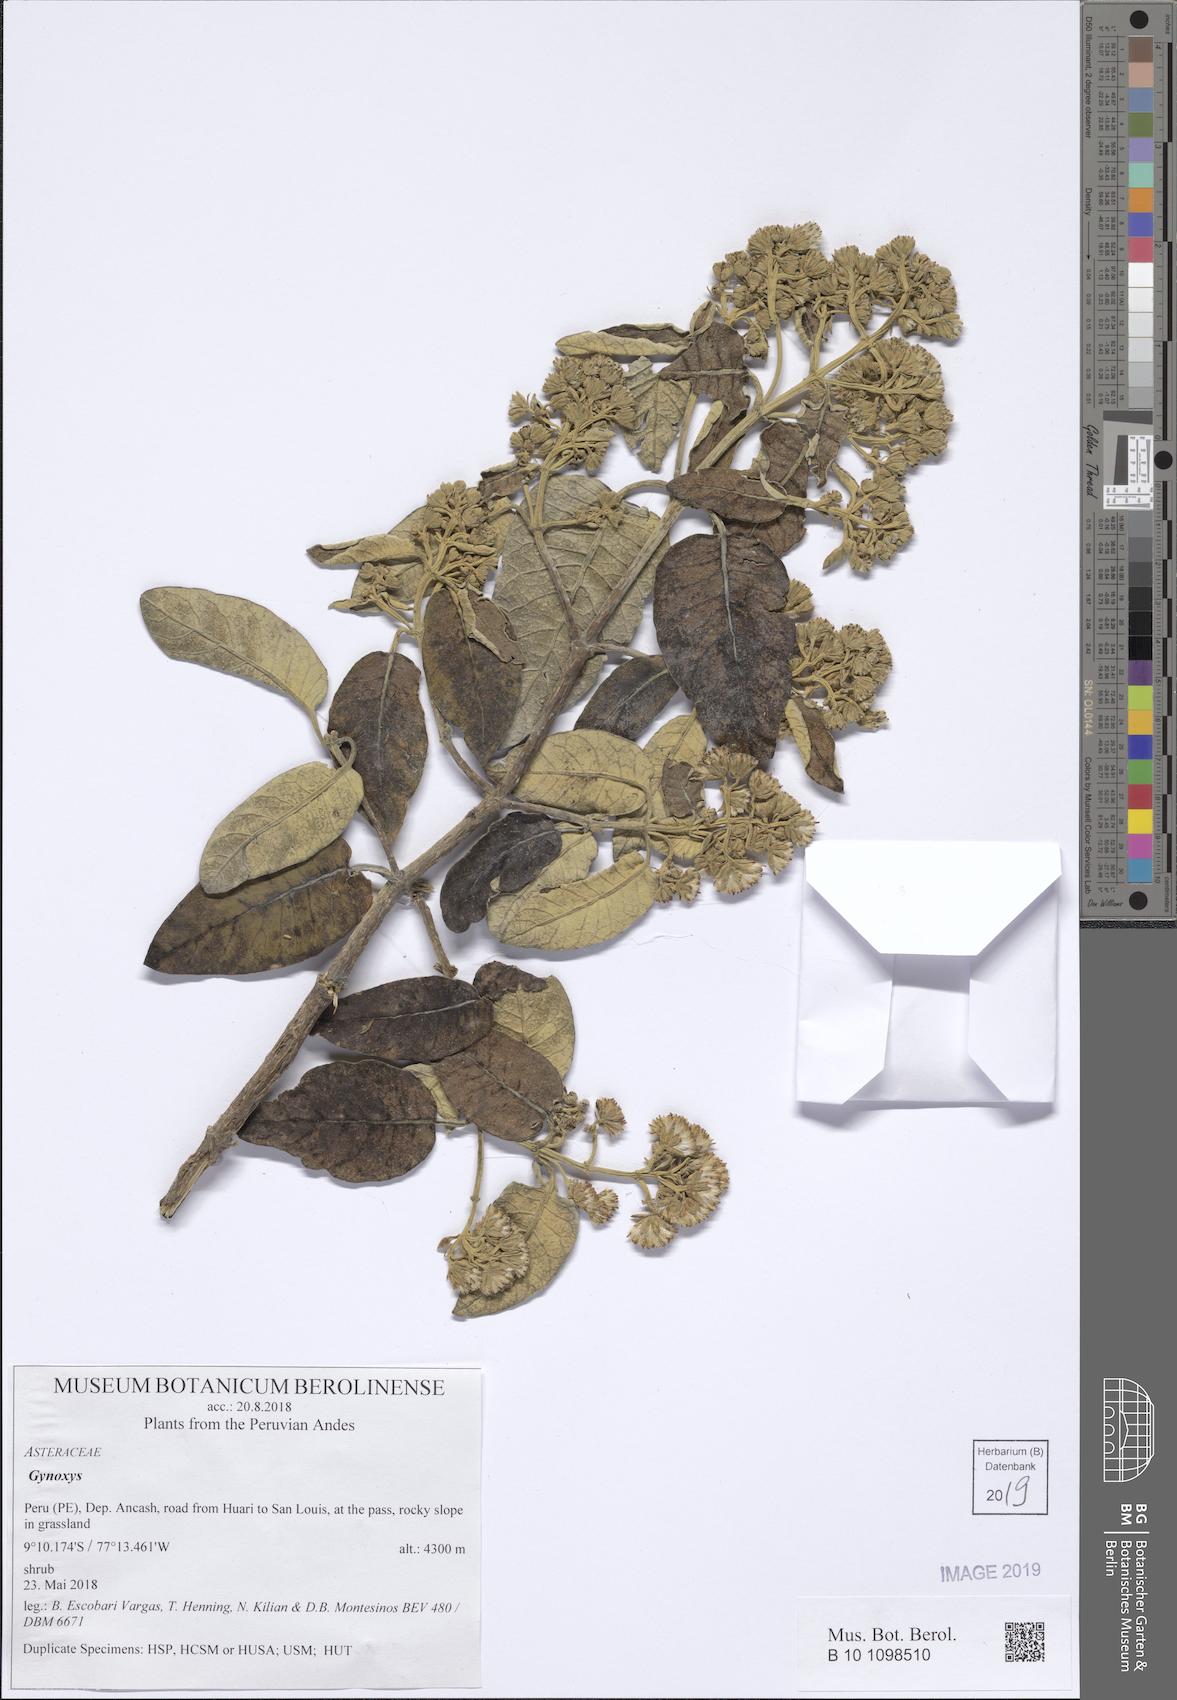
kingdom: Plantae
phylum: Tracheophyta
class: Magnoliopsida
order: Asterales
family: Asteraceae
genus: Gynoxys
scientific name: Gynoxys
